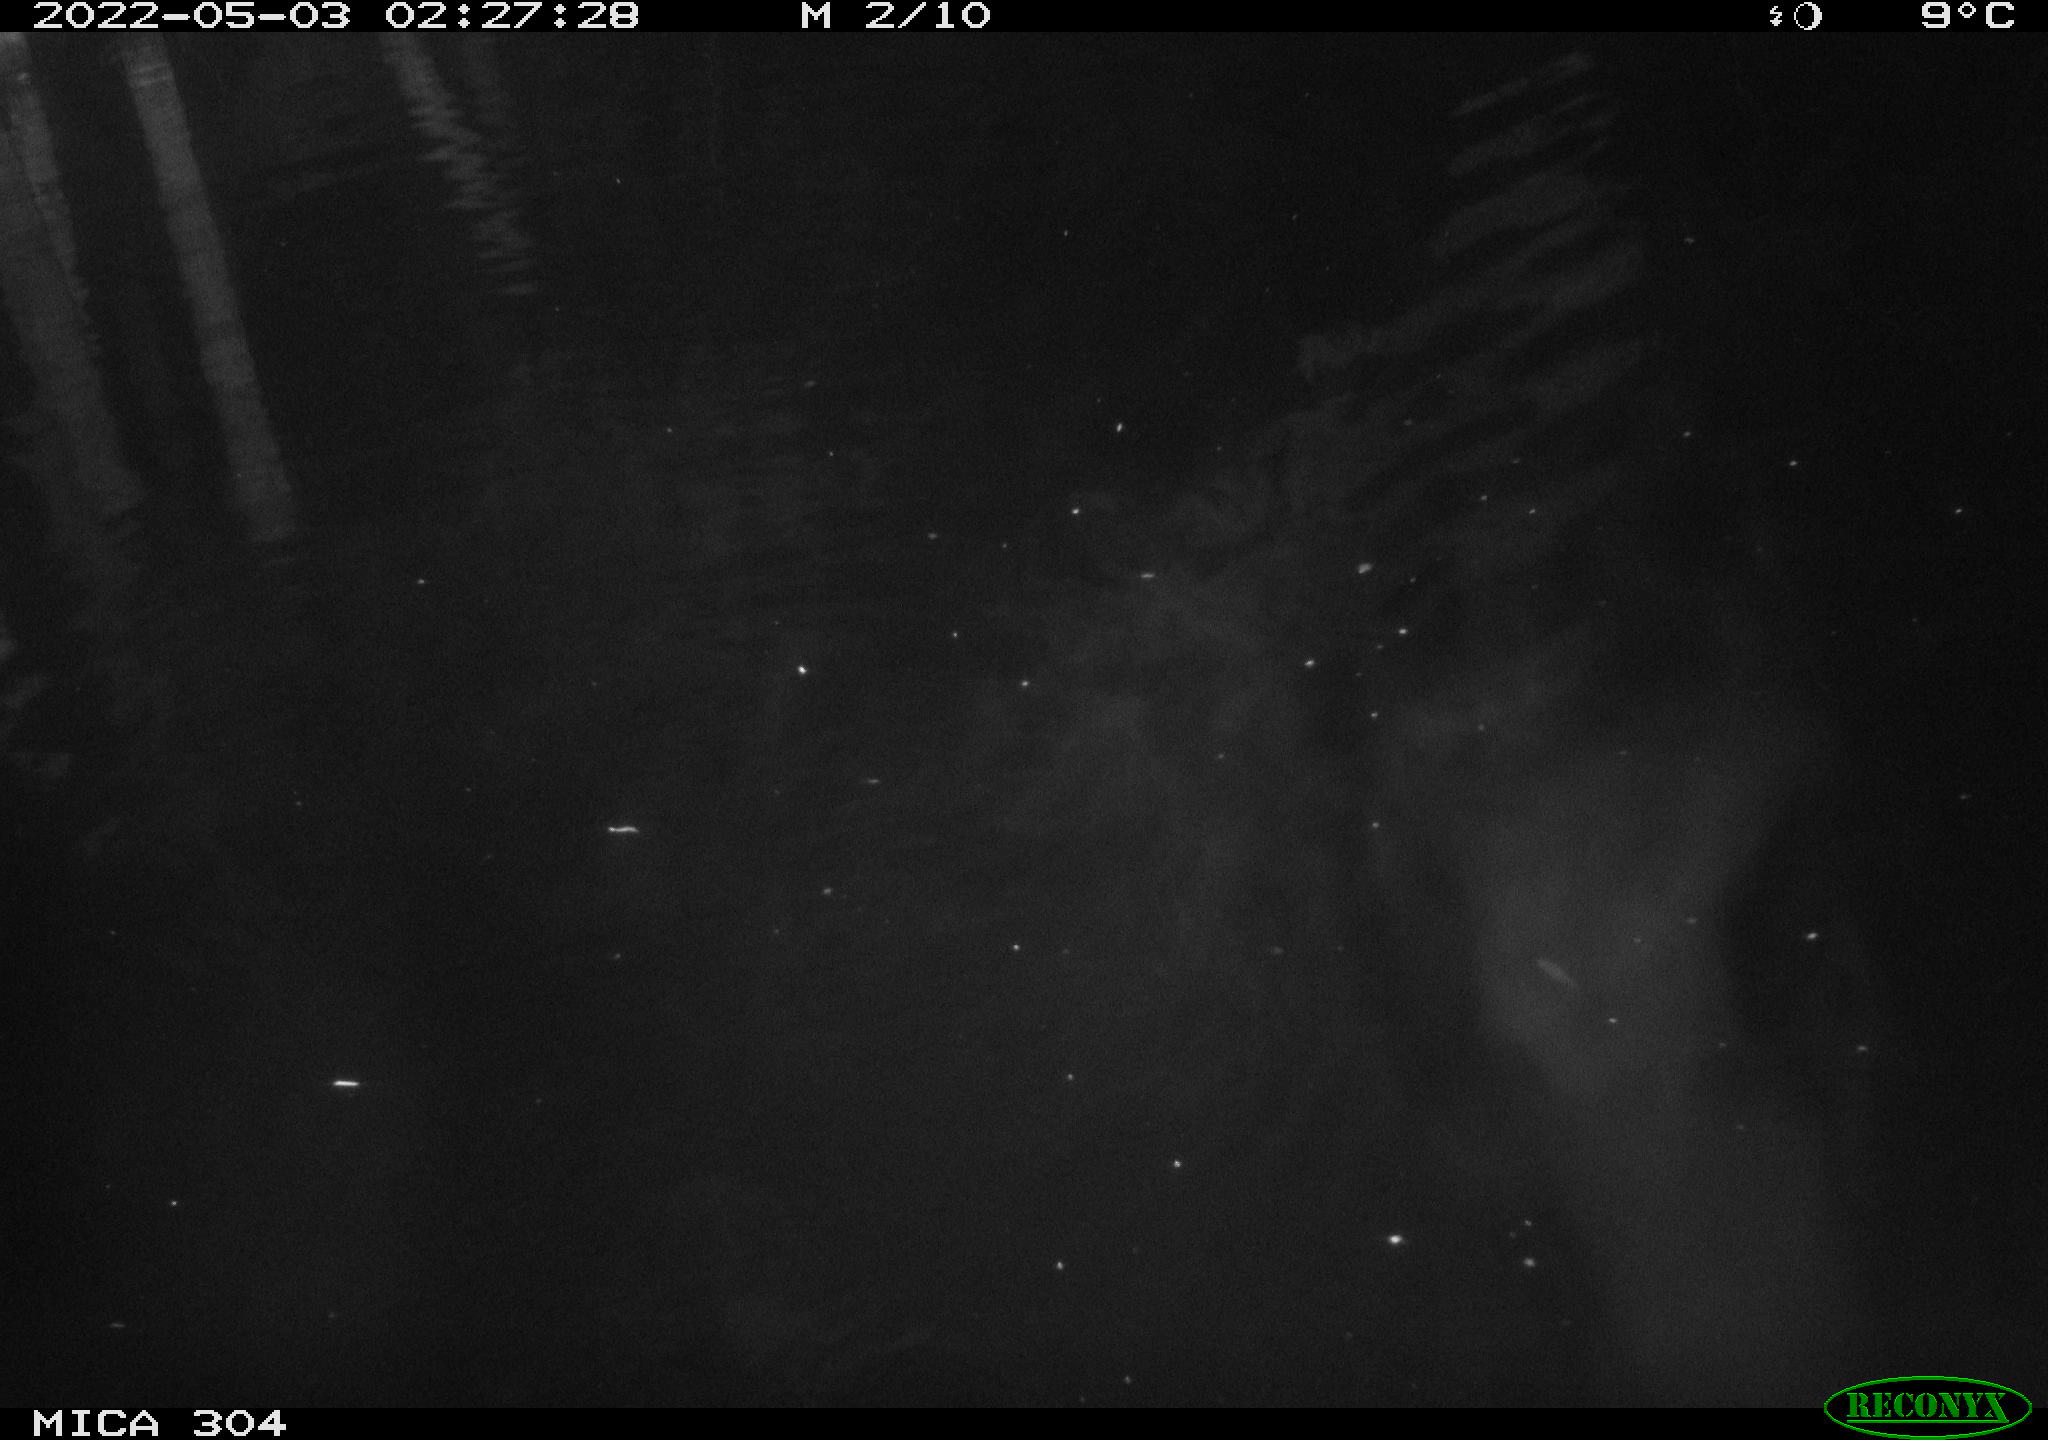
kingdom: Animalia
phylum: Chordata
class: Mammalia
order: Rodentia
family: Muridae
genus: Rattus
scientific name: Rattus norvegicus
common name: Brown rat
